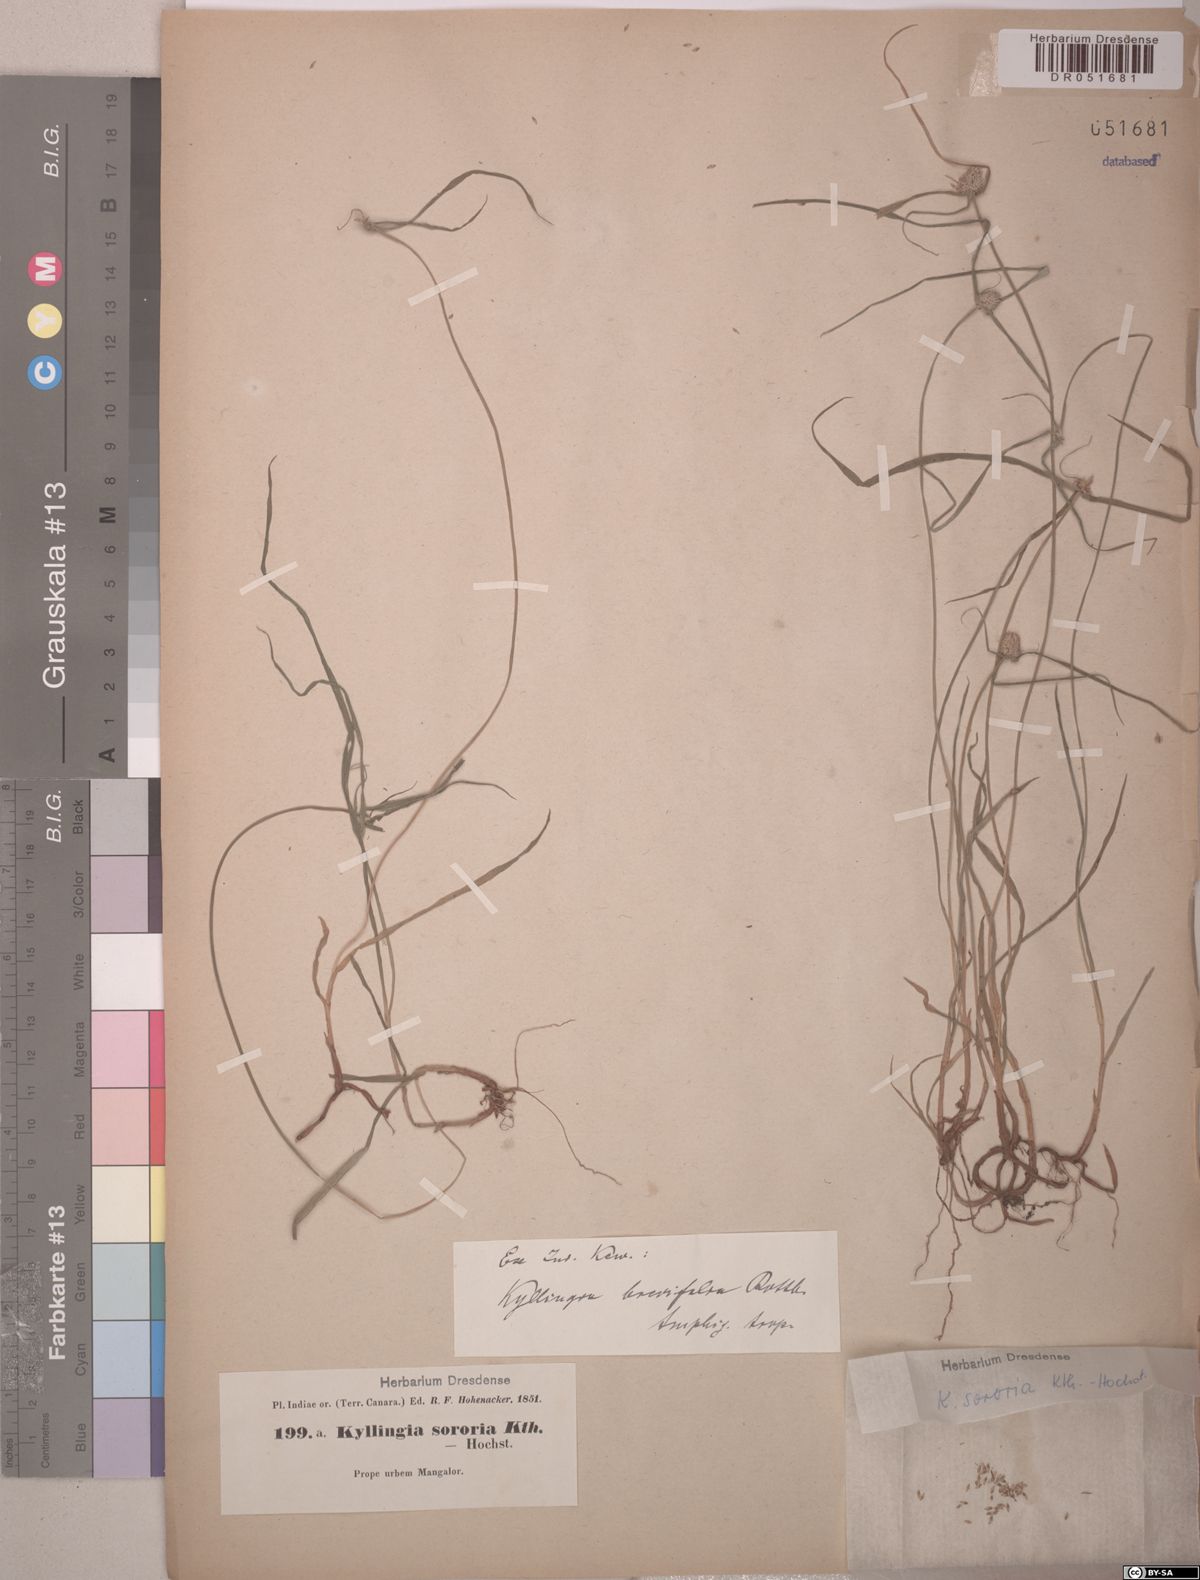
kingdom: Plantae
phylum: Tracheophyta
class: Liliopsida
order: Poales
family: Cyperaceae
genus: Cyperus
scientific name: Cyperus brevifolius
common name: Globe kyllinga
